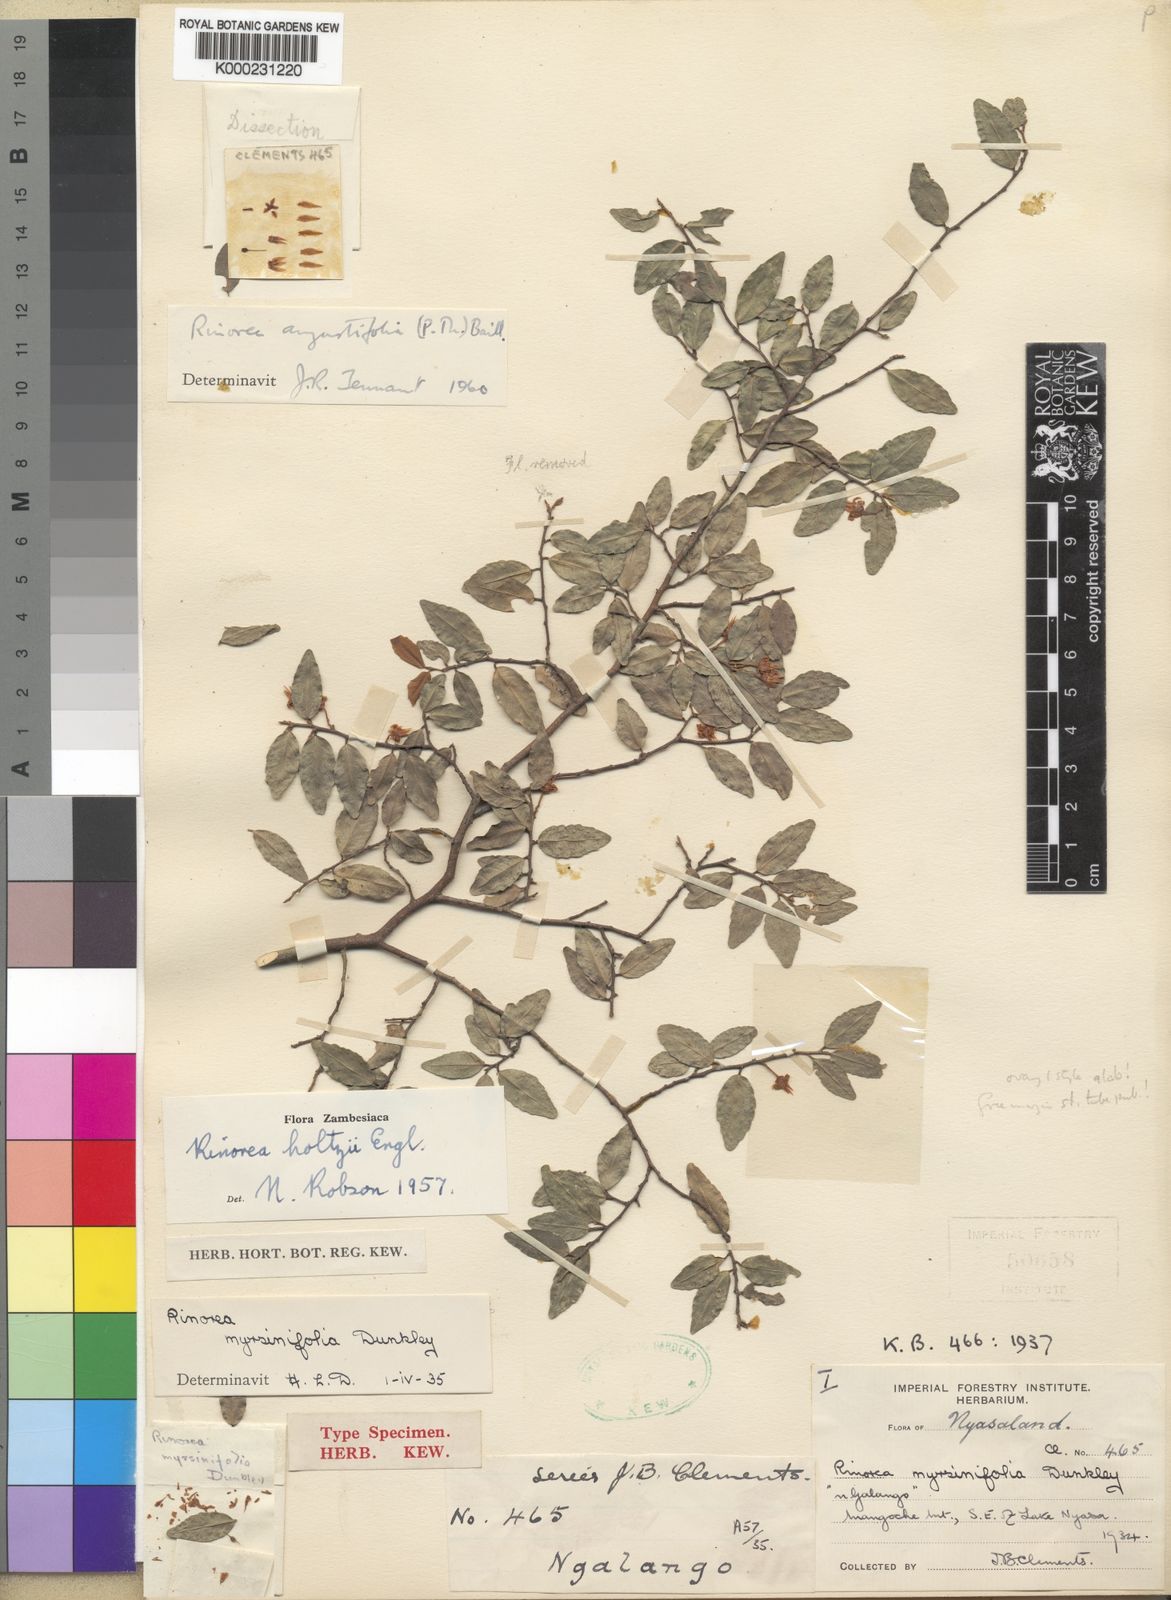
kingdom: Plantae
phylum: Tracheophyta
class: Magnoliopsida
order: Malpighiales
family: Violaceae
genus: Rinorea
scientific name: Rinorea angustifolia
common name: White violet-bush
